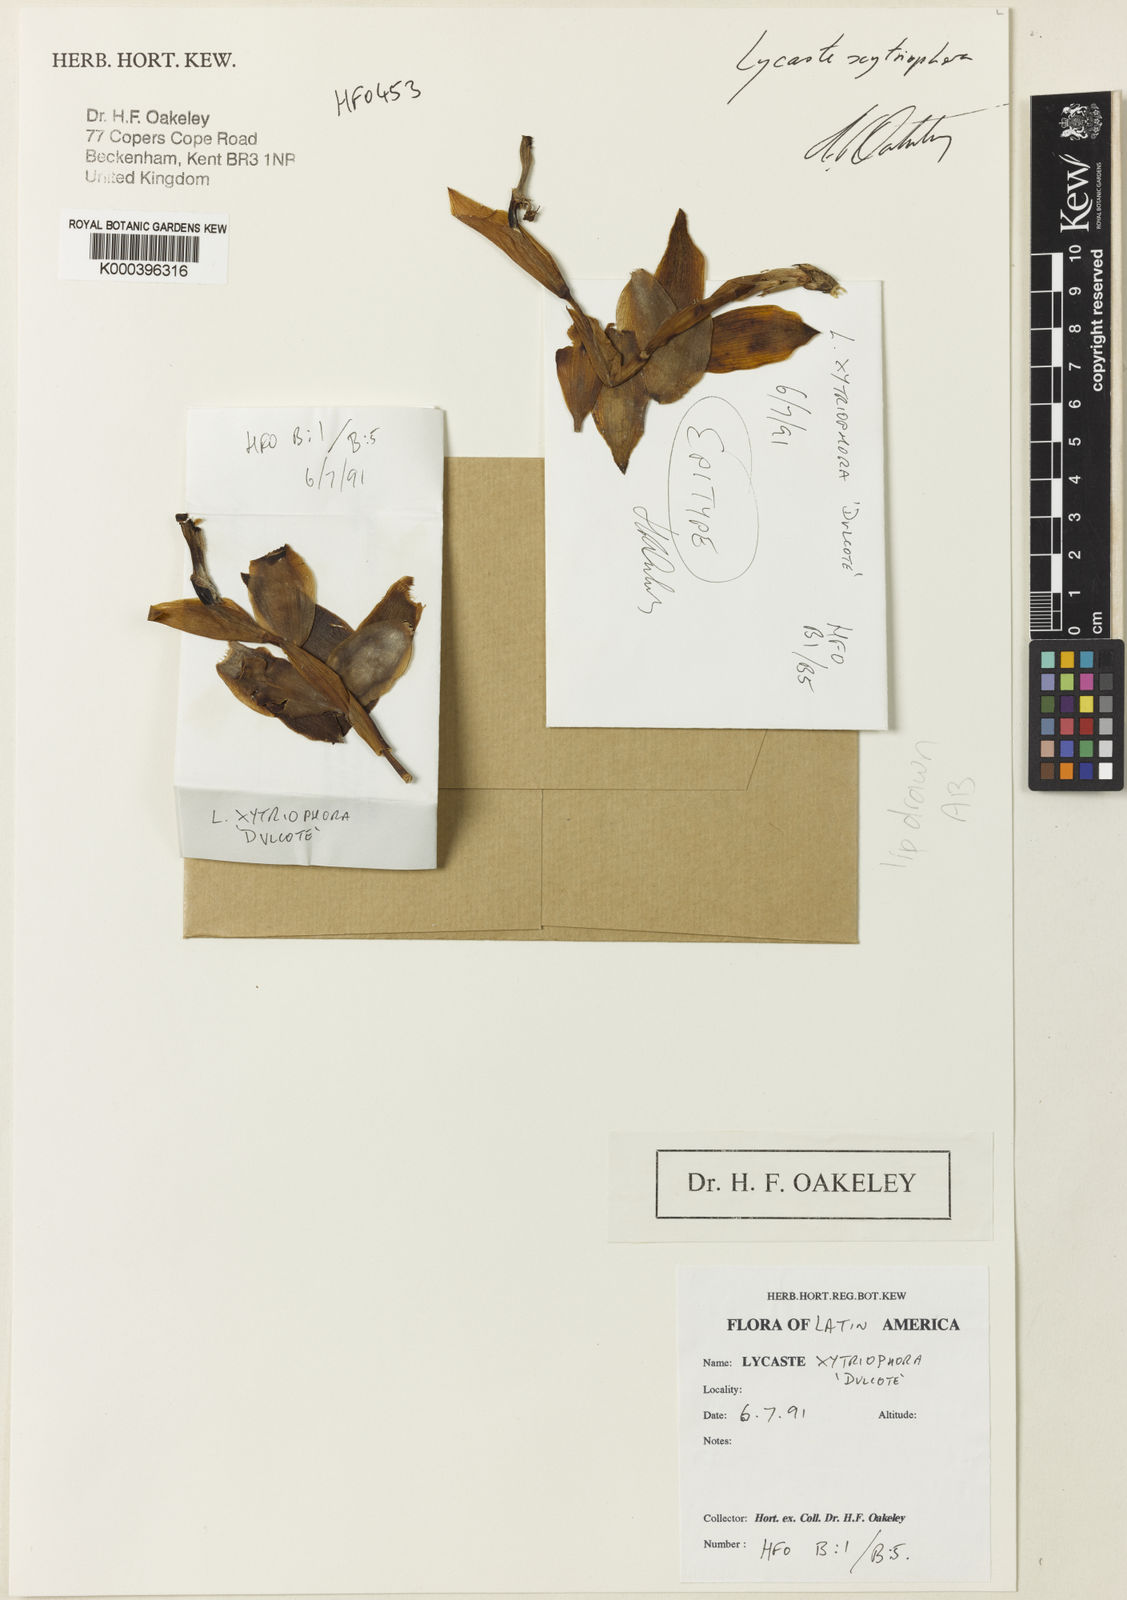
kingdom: Plantae
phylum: Tracheophyta
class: Liliopsida
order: Asparagales
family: Orchidaceae
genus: Lycaste
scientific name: Lycaste xytriophora
